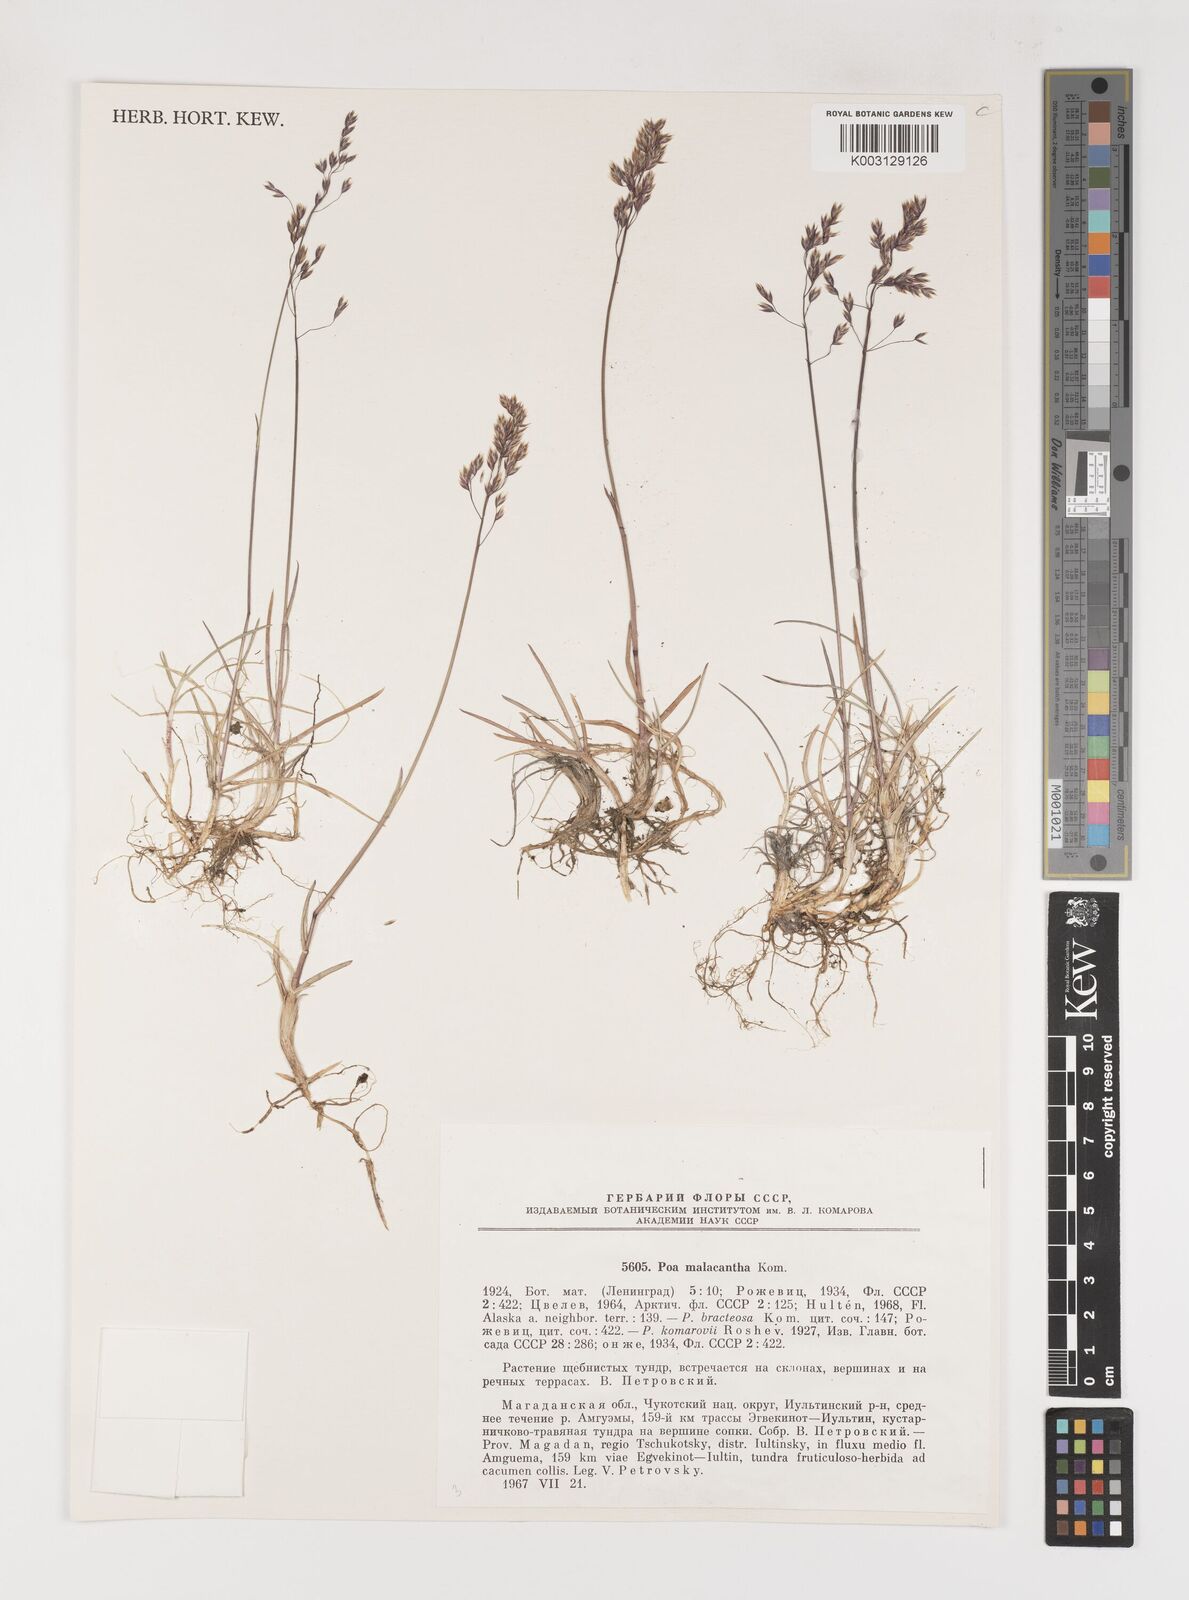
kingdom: Plantae
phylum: Tracheophyta
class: Liliopsida
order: Poales
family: Poaceae
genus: Poa
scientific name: Poa arctica
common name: Arctic bluegrass
